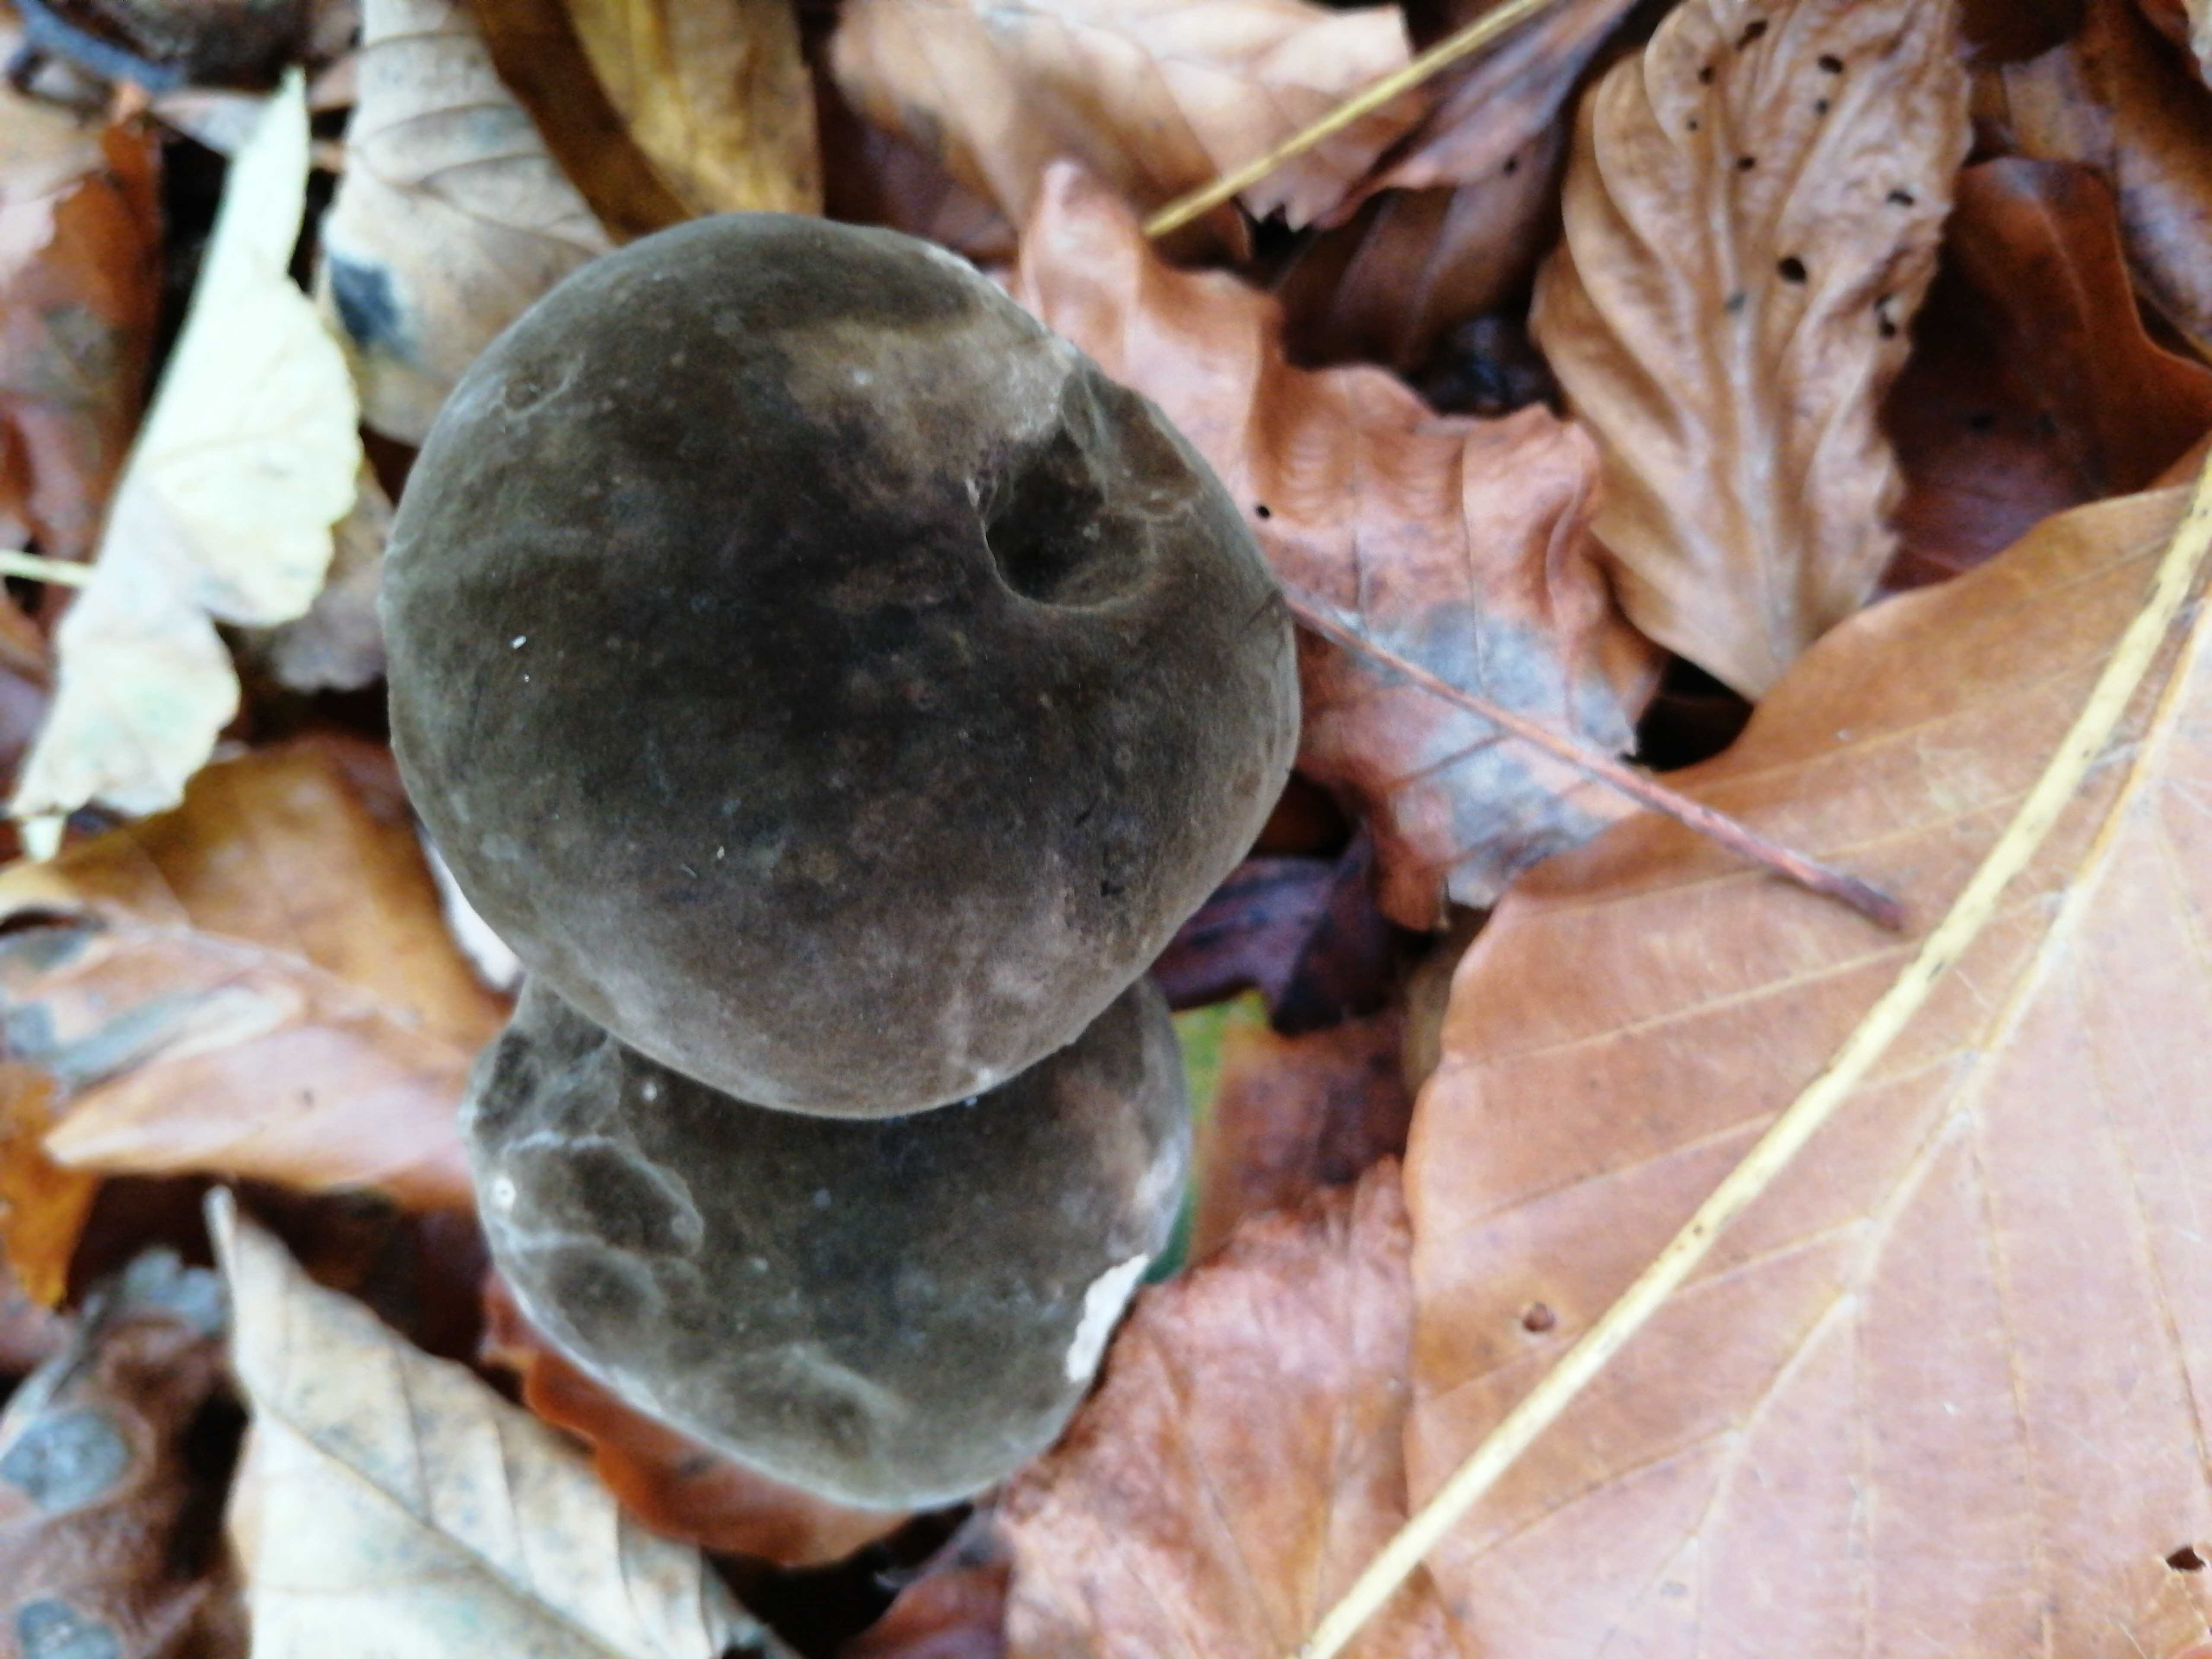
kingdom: Fungi
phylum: Basidiomycota
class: Agaricomycetes
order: Boletales
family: Boletaceae
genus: Porphyrellus
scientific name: Porphyrellus porphyrosporus
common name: sodrørhat
